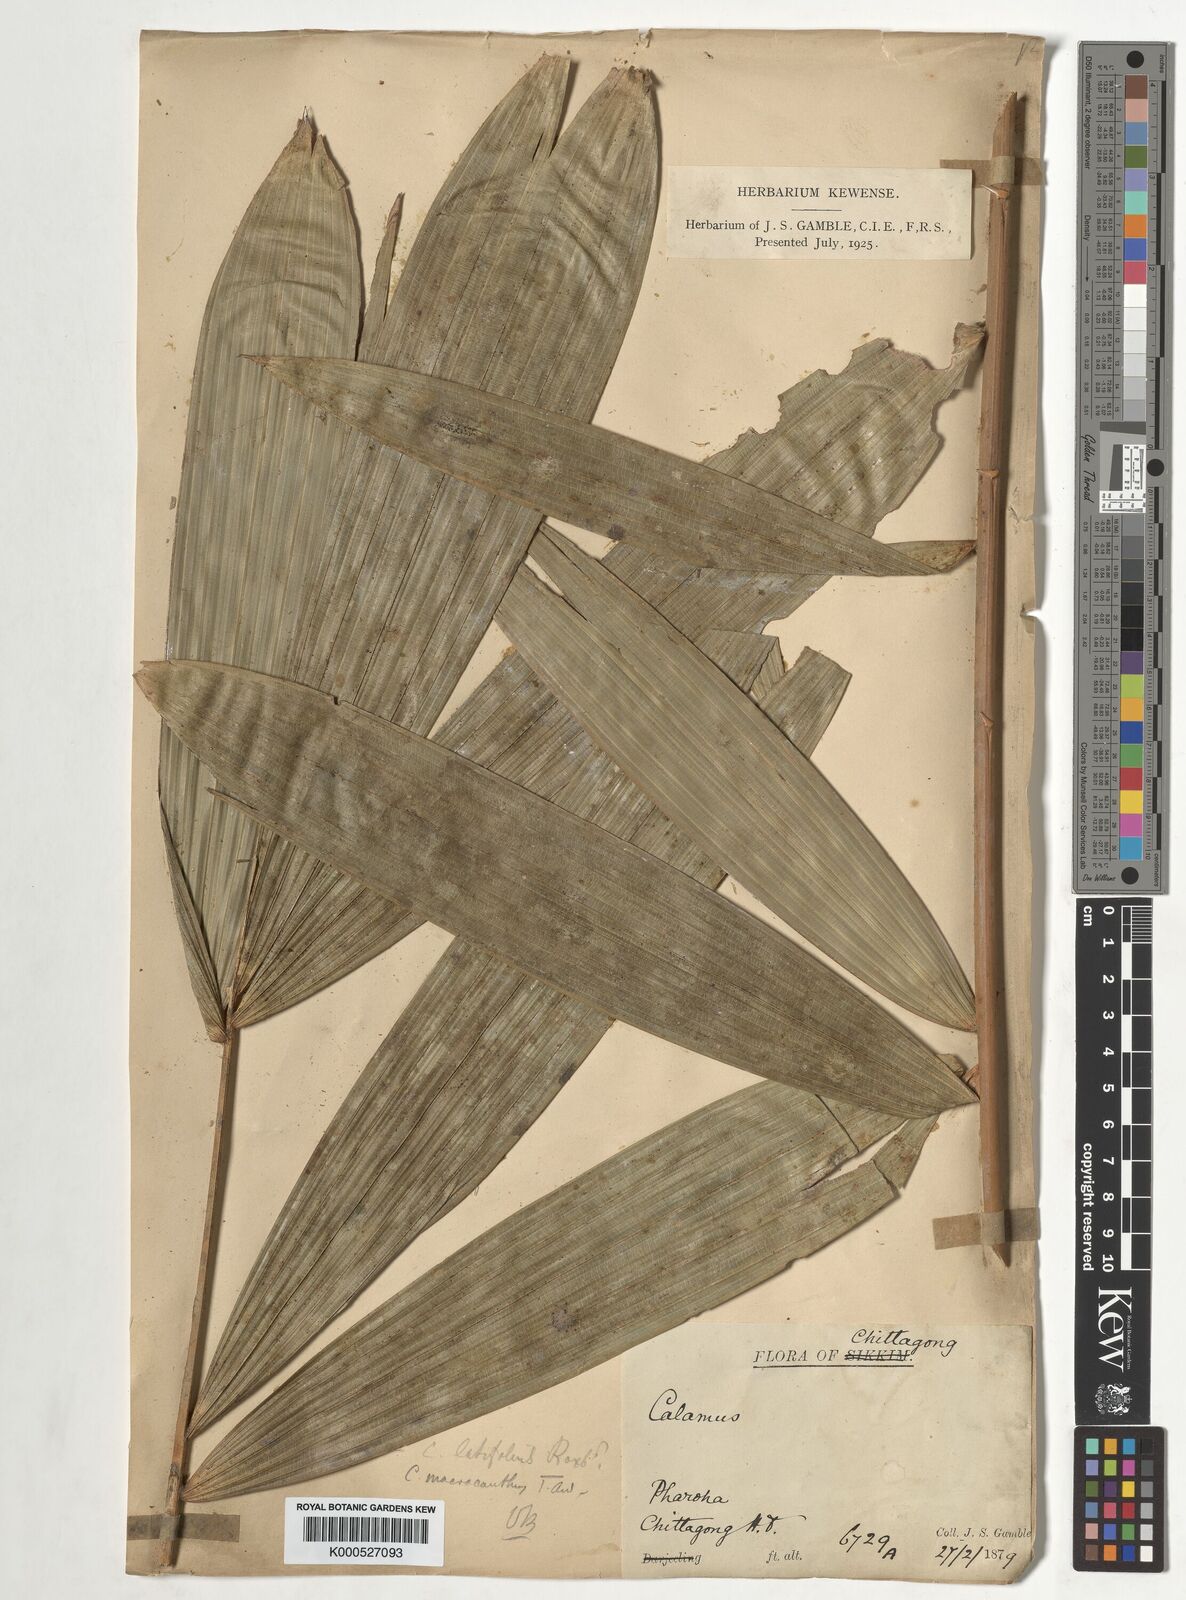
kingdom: Plantae
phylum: Tracheophyta
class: Liliopsida
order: Arecales
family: Arecaceae
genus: Calamus
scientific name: Calamus latifolius
